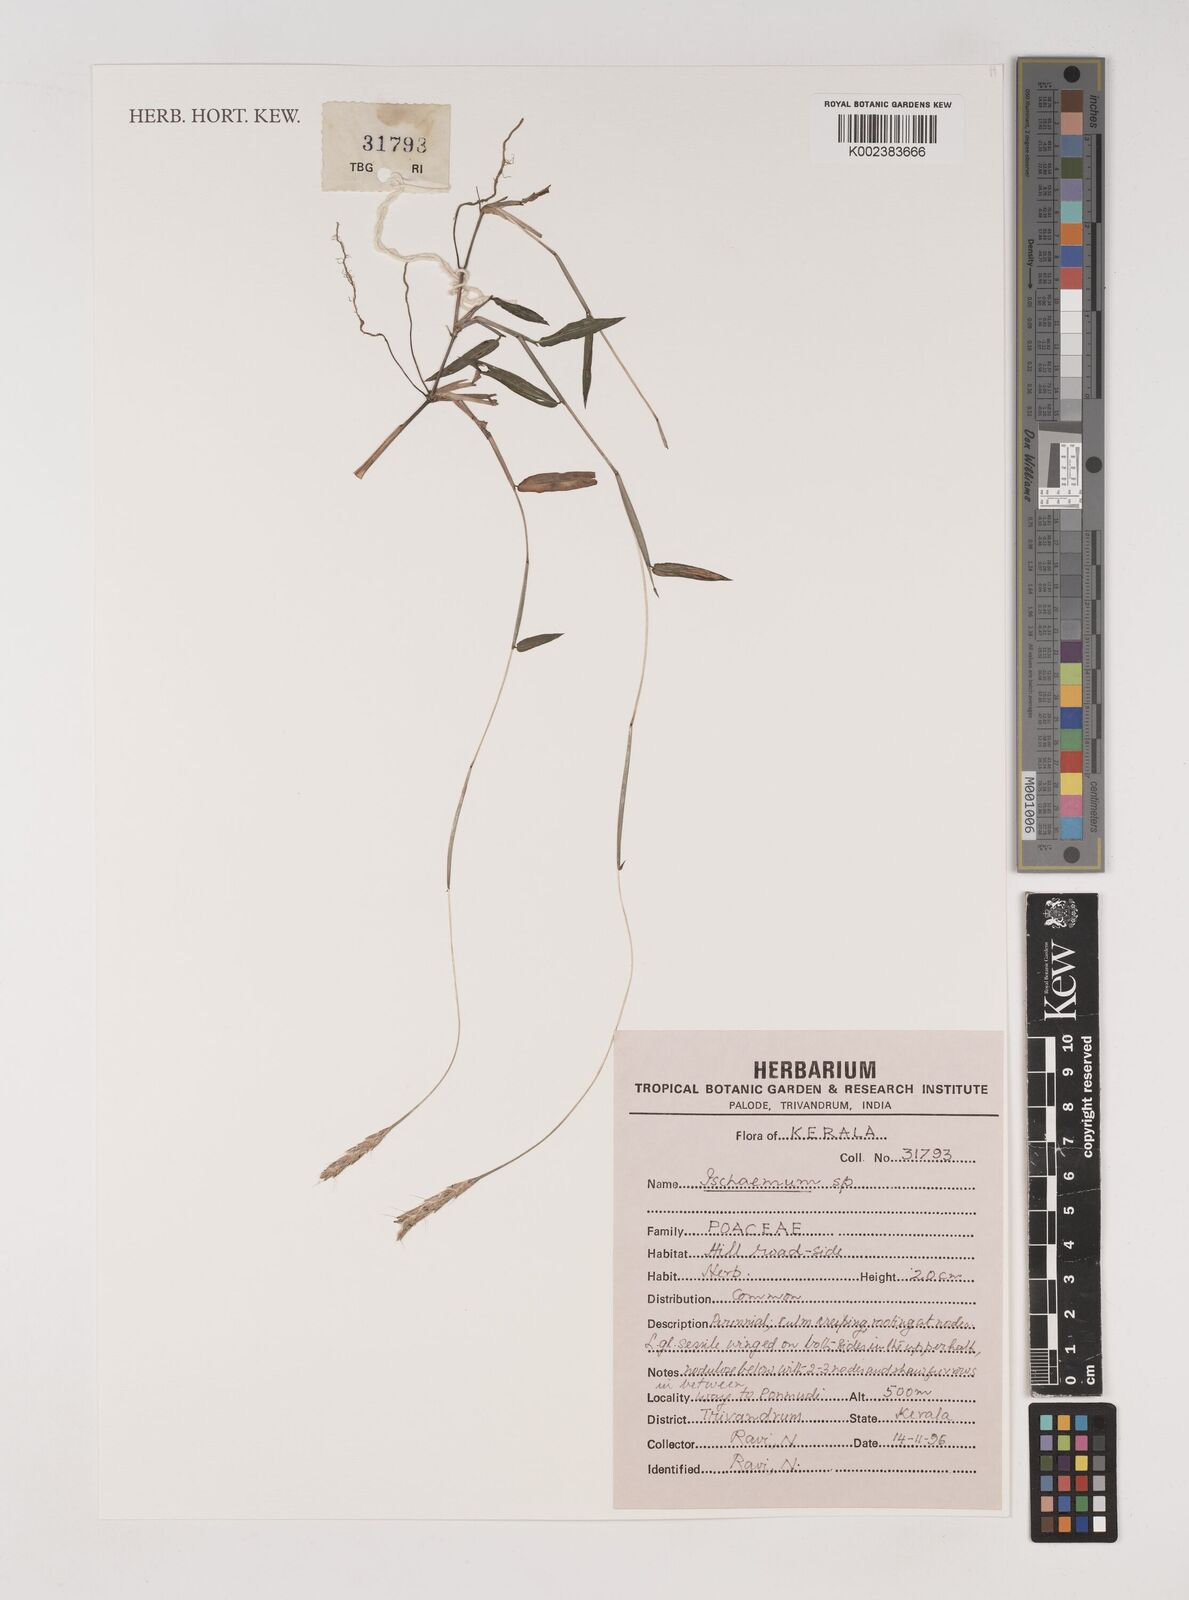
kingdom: Plantae
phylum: Tracheophyta
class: Liliopsida
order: Poales
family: Poaceae
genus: Ischaemum
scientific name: Ischaemum
